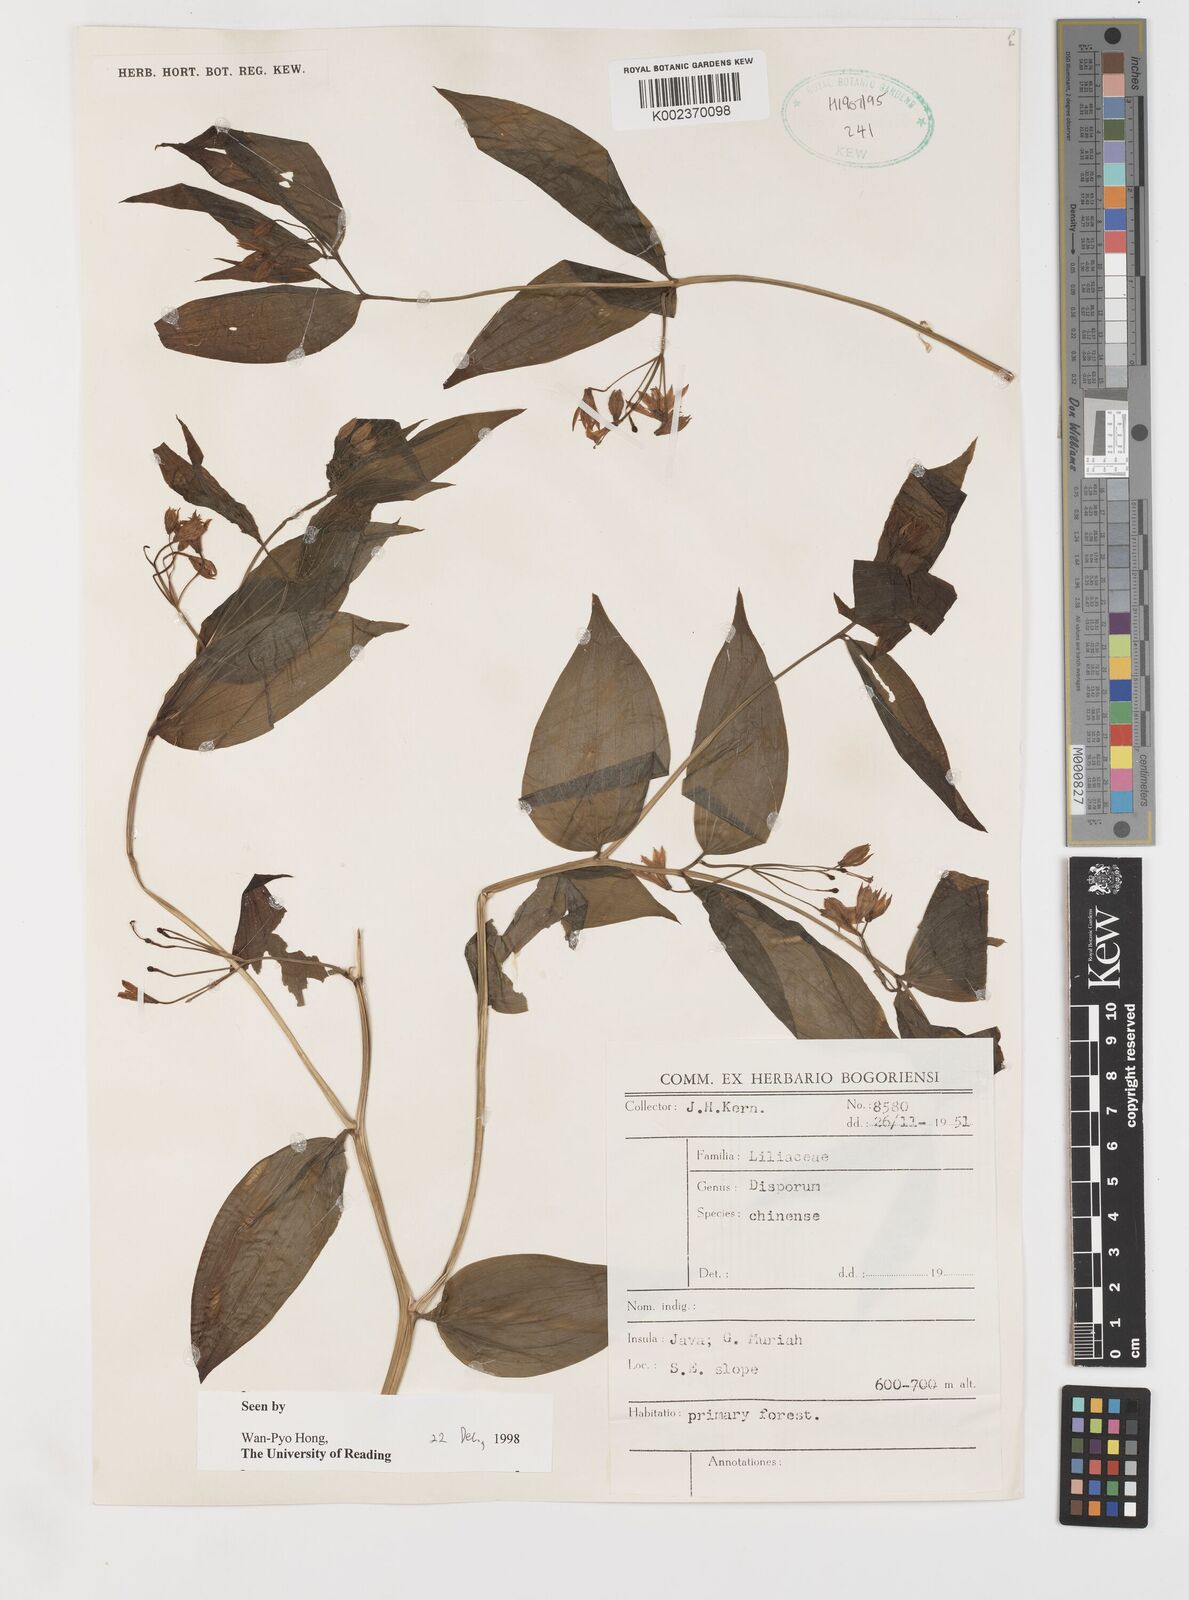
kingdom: Plantae
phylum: Tracheophyta
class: Liliopsida
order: Liliales
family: Colchicaceae
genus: Disporum
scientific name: Disporum cantoniense
